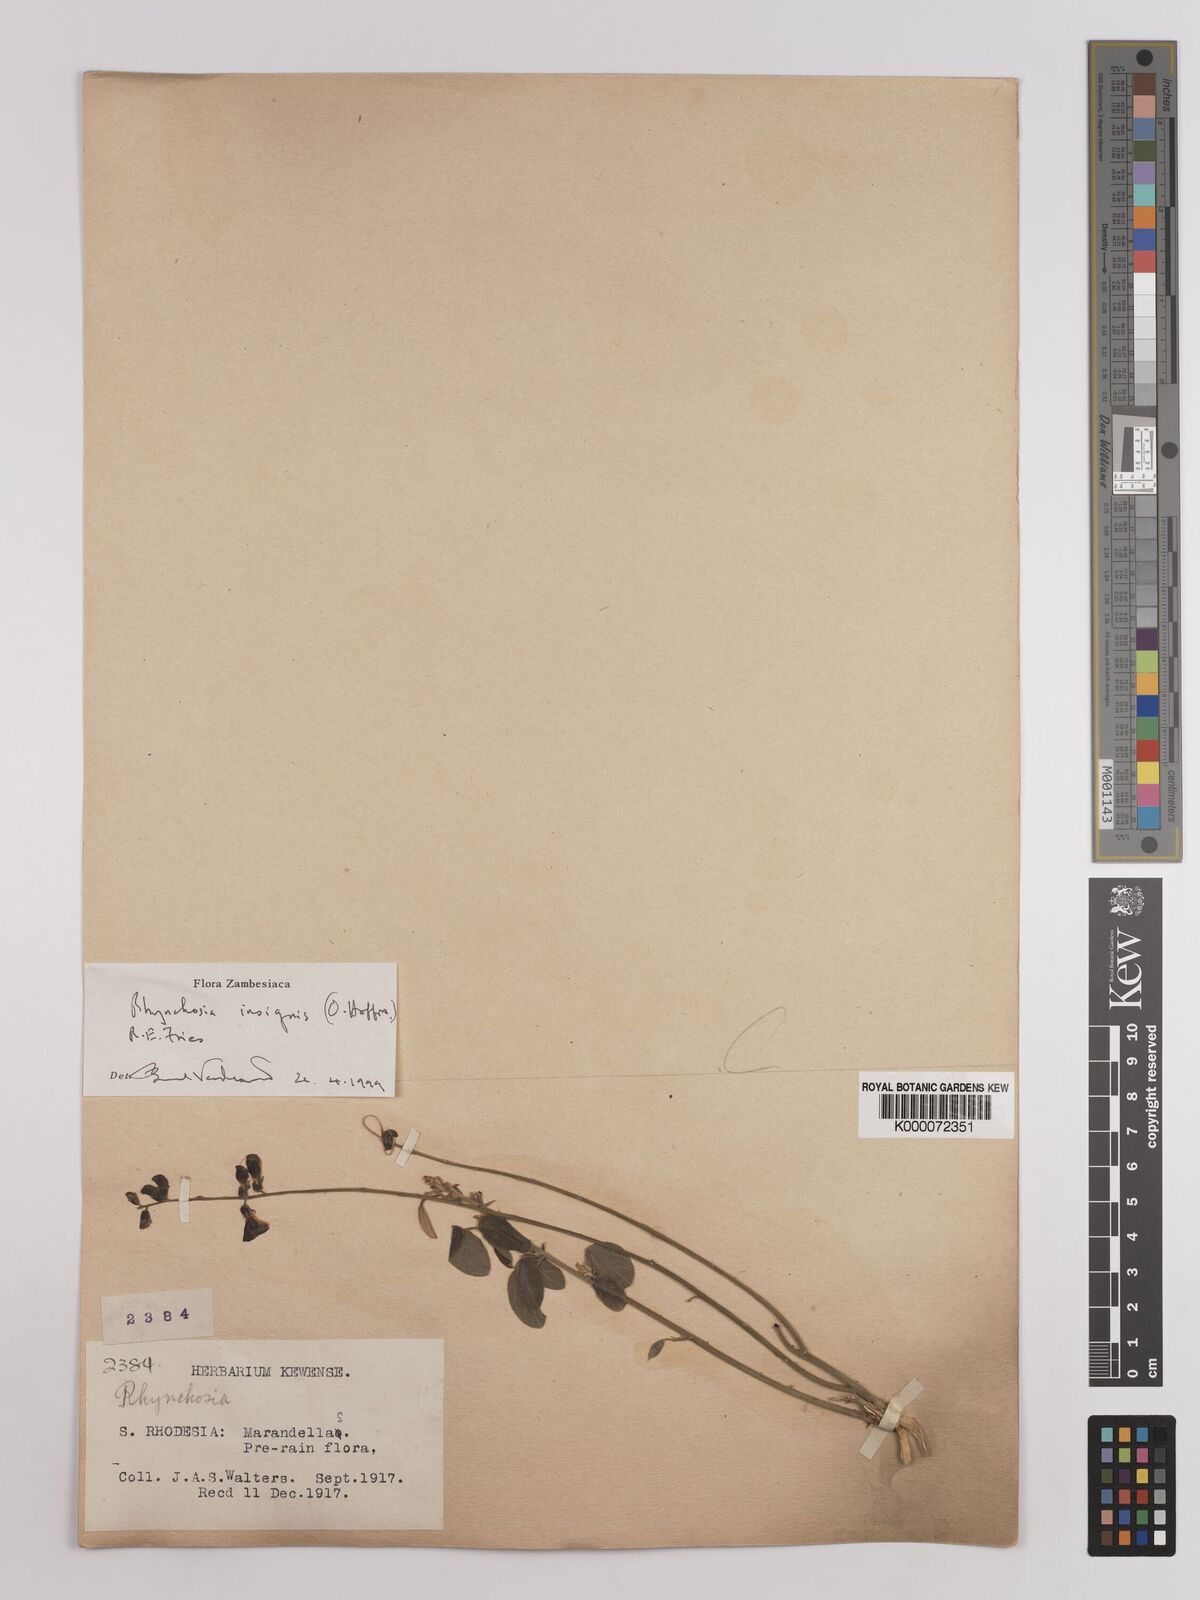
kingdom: Plantae
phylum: Tracheophyta
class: Magnoliopsida
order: Fabales
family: Fabaceae
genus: Rhynchosia
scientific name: Rhynchosia insignis
